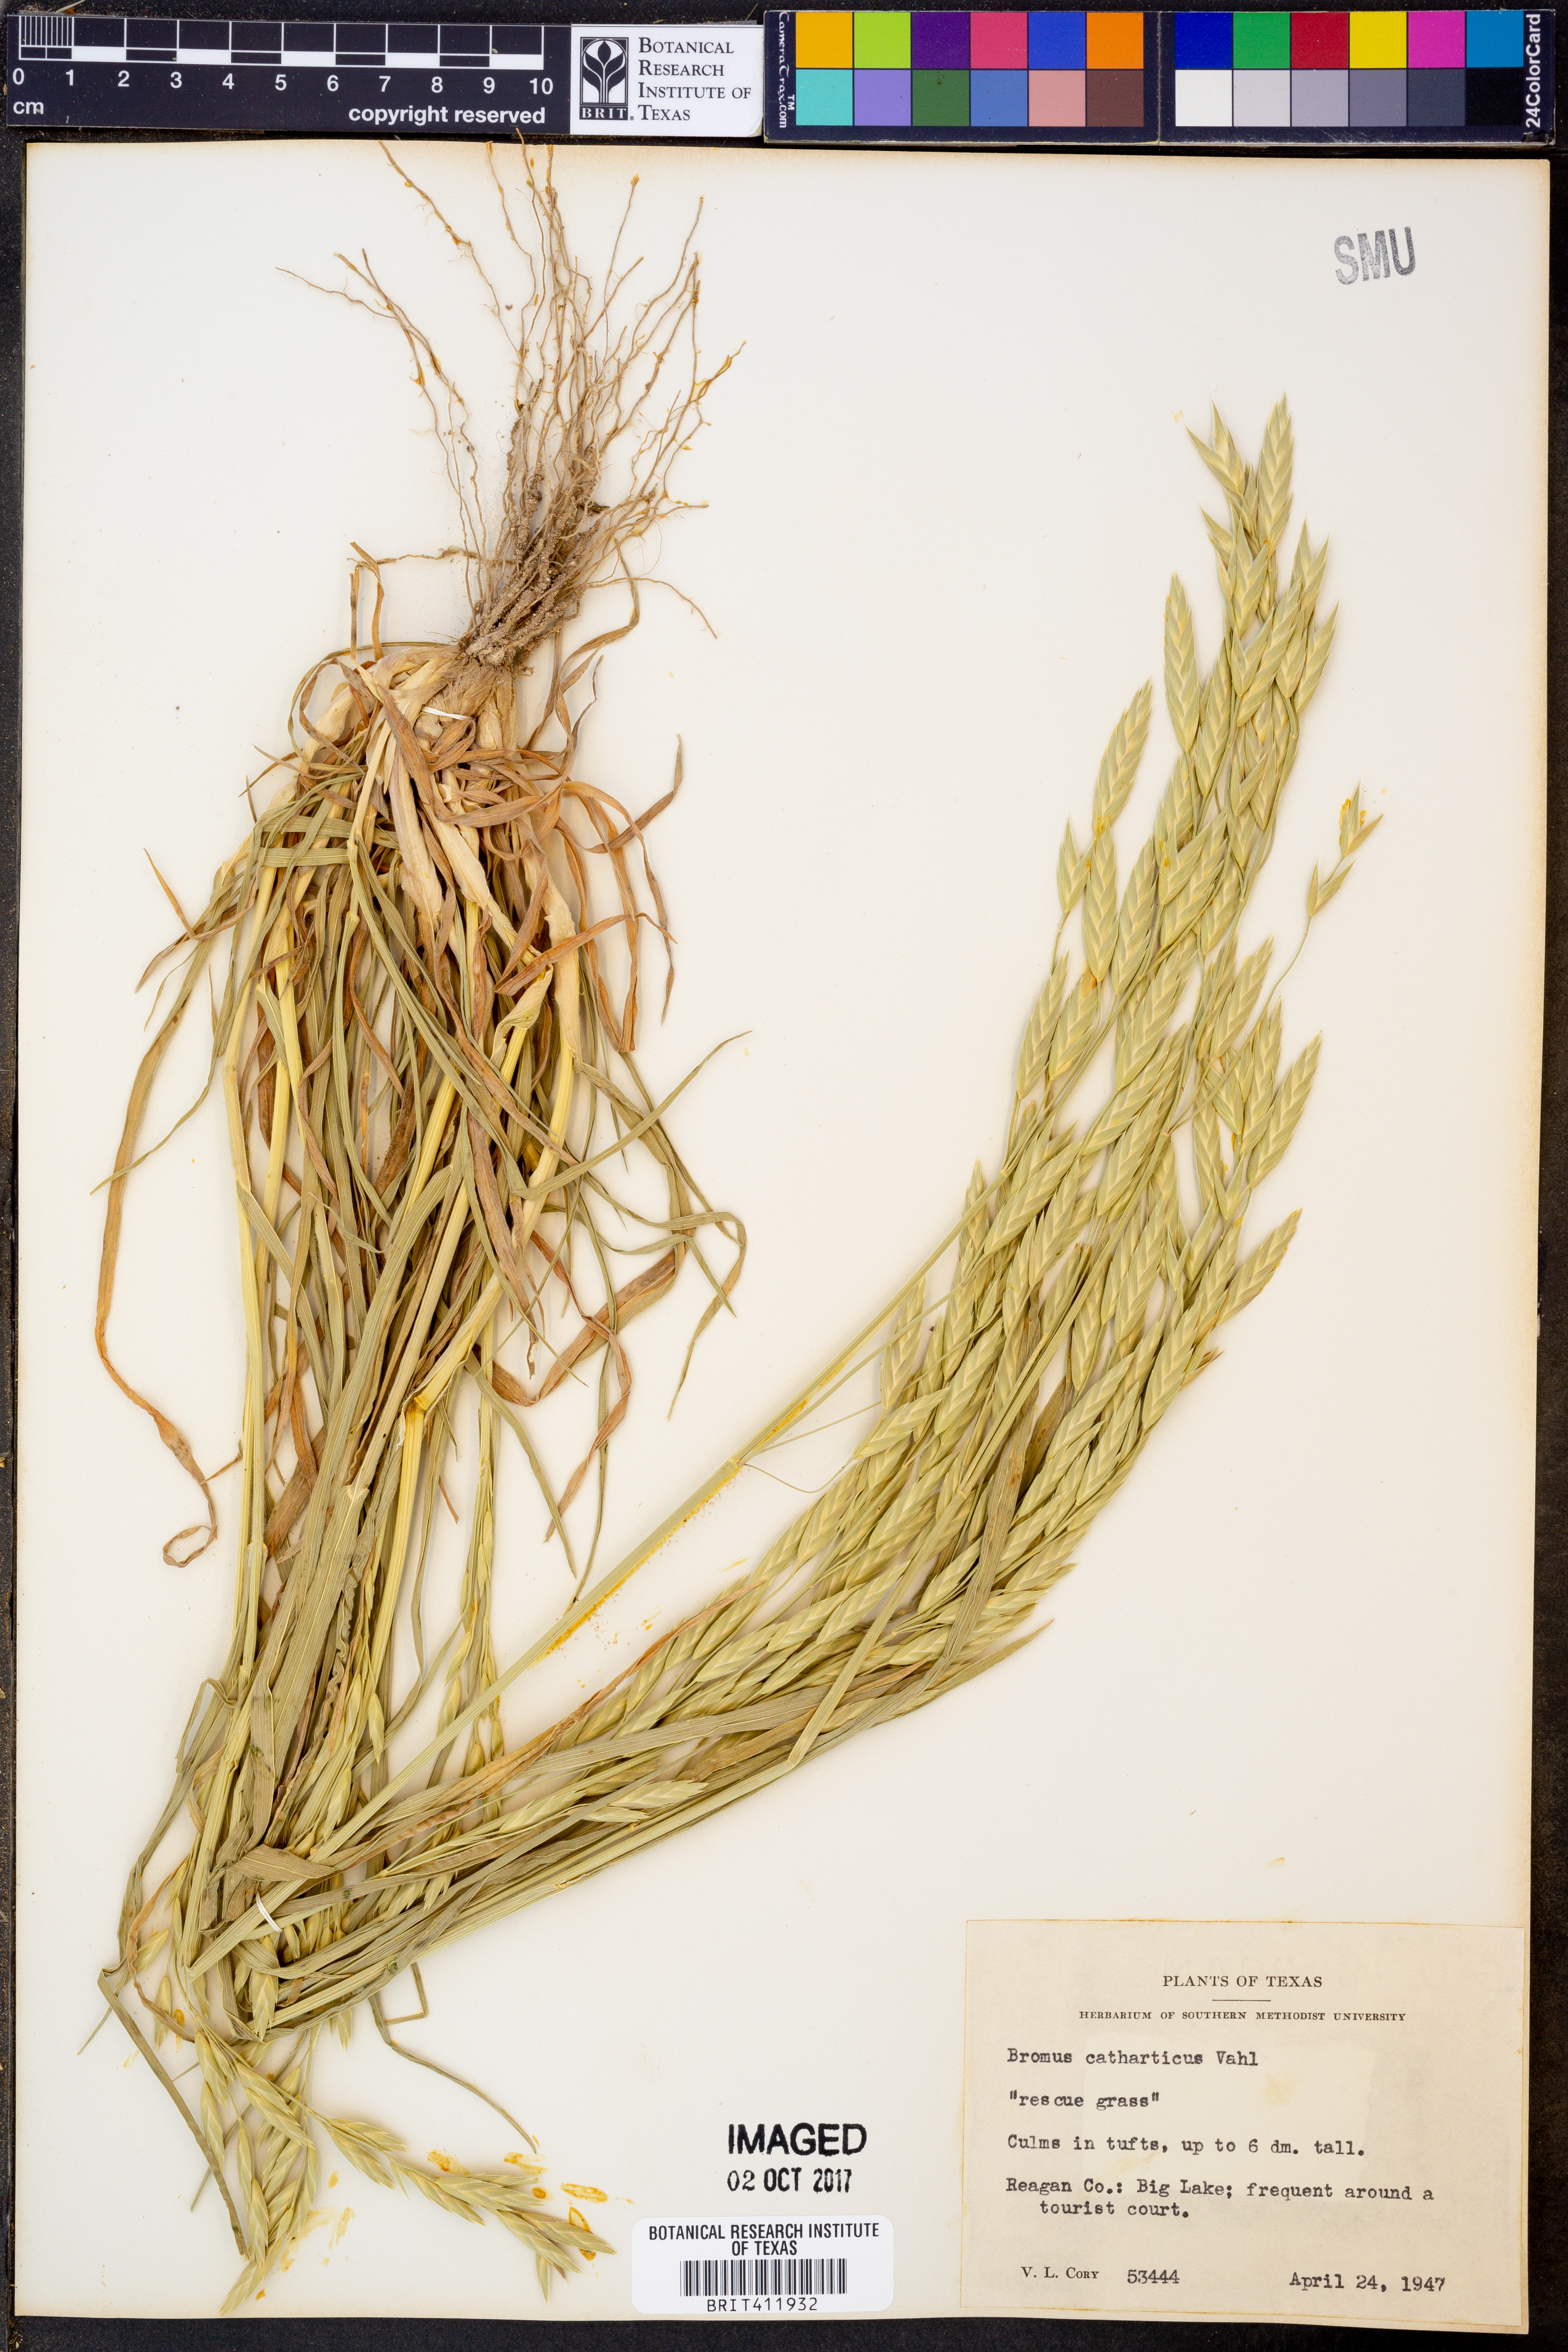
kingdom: Plantae
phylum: Tracheophyta
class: Liliopsida
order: Poales
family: Poaceae
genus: Bromus
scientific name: Bromus catharticus
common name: Rescuegrass
